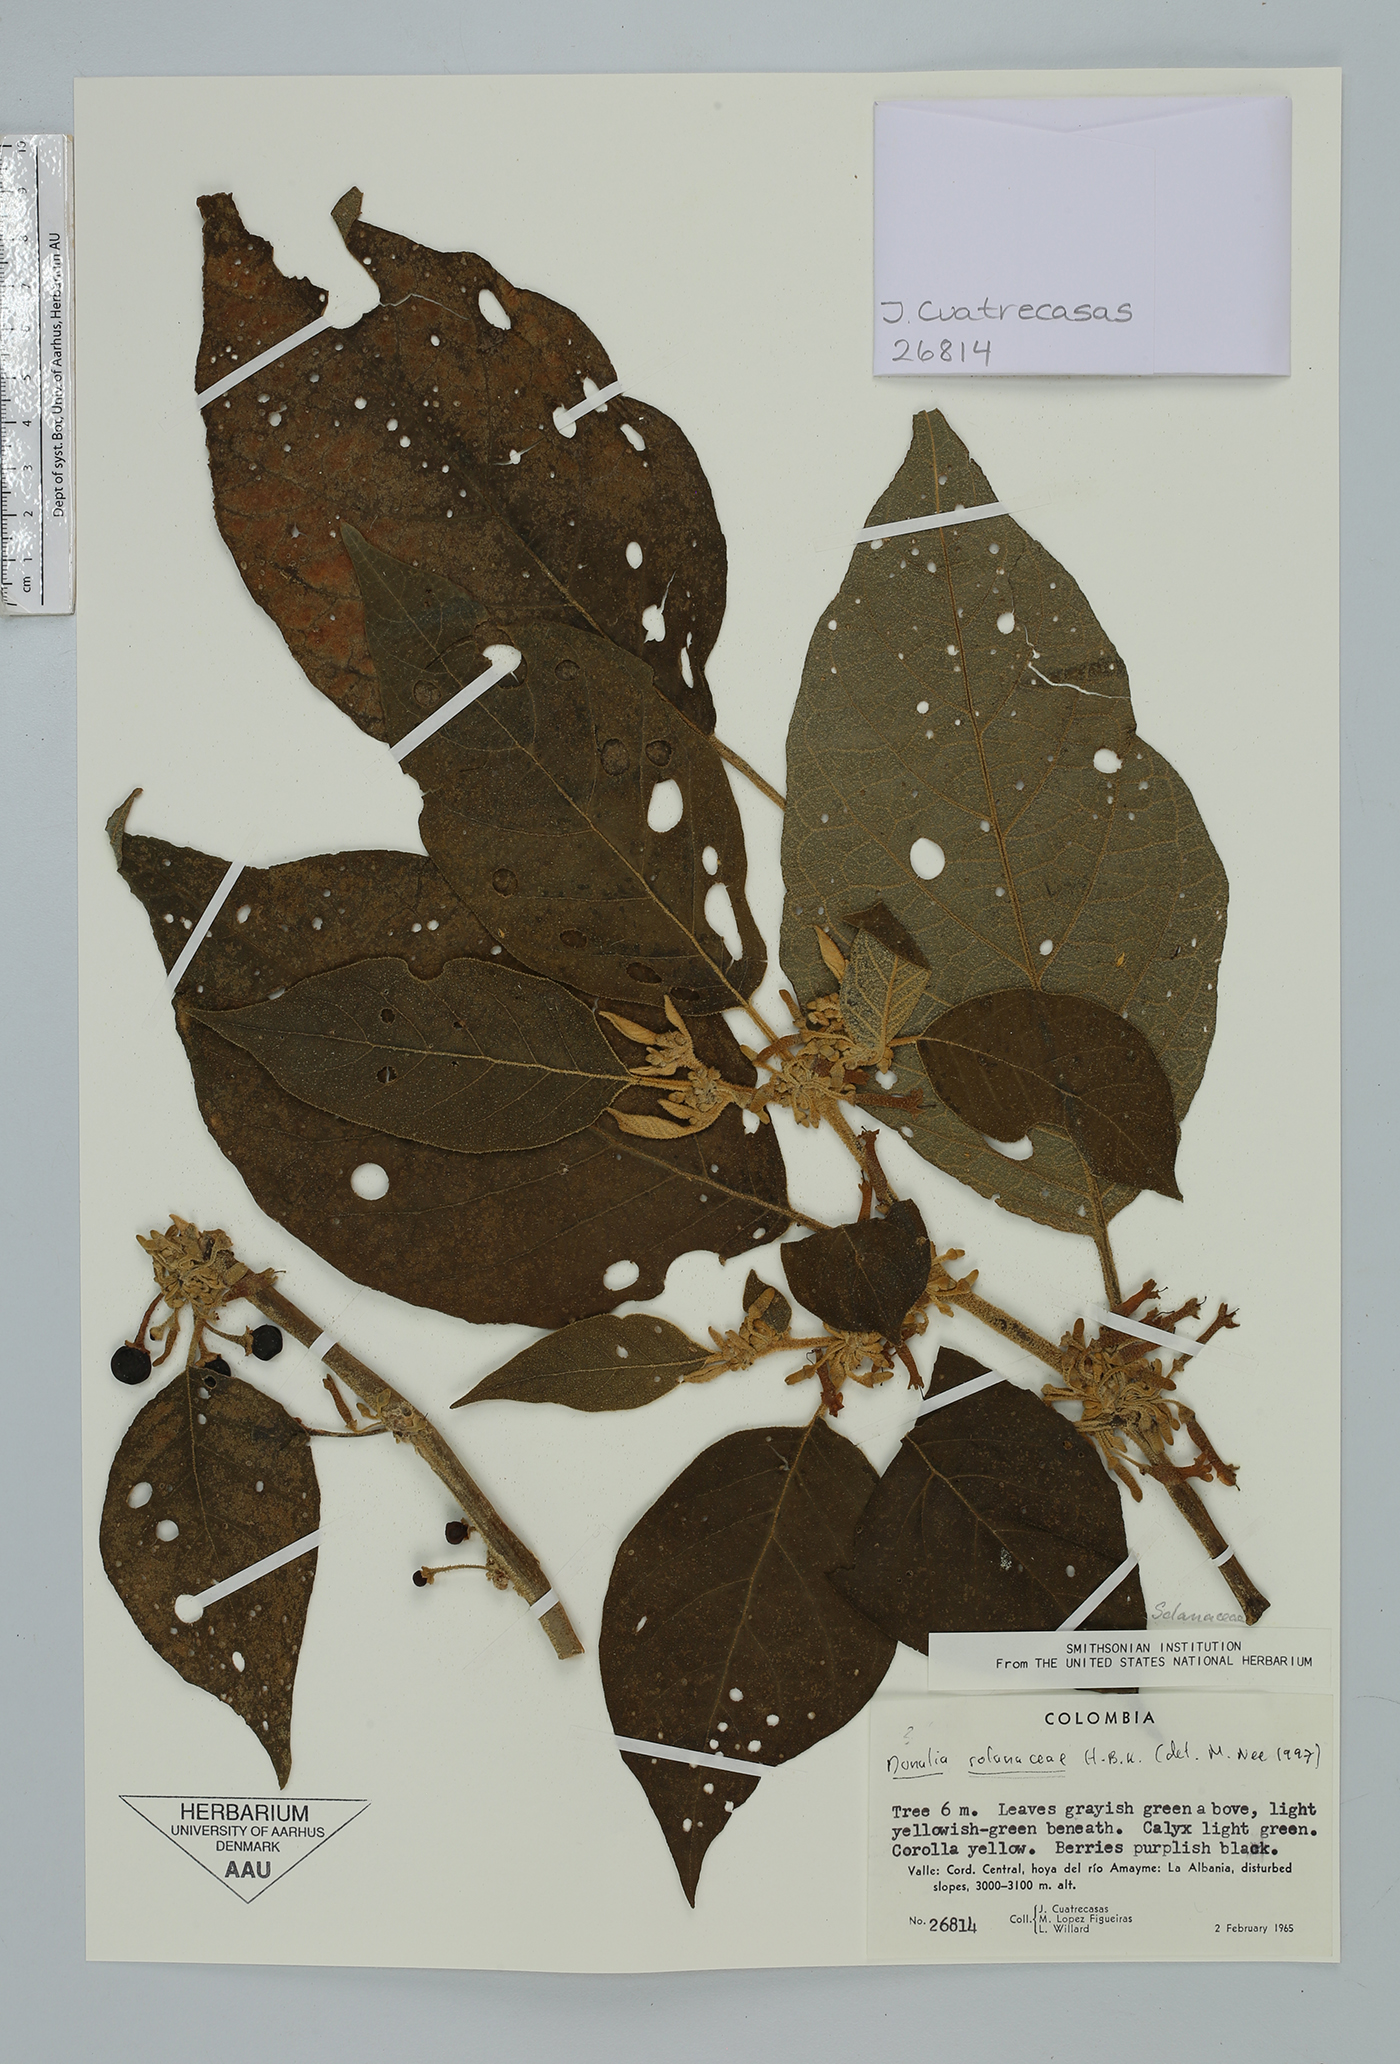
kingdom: Plantae
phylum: Tracheophyta
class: Magnoliopsida
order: Solanales
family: Solanaceae
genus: Saracha
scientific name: Saracha nigribaccata
